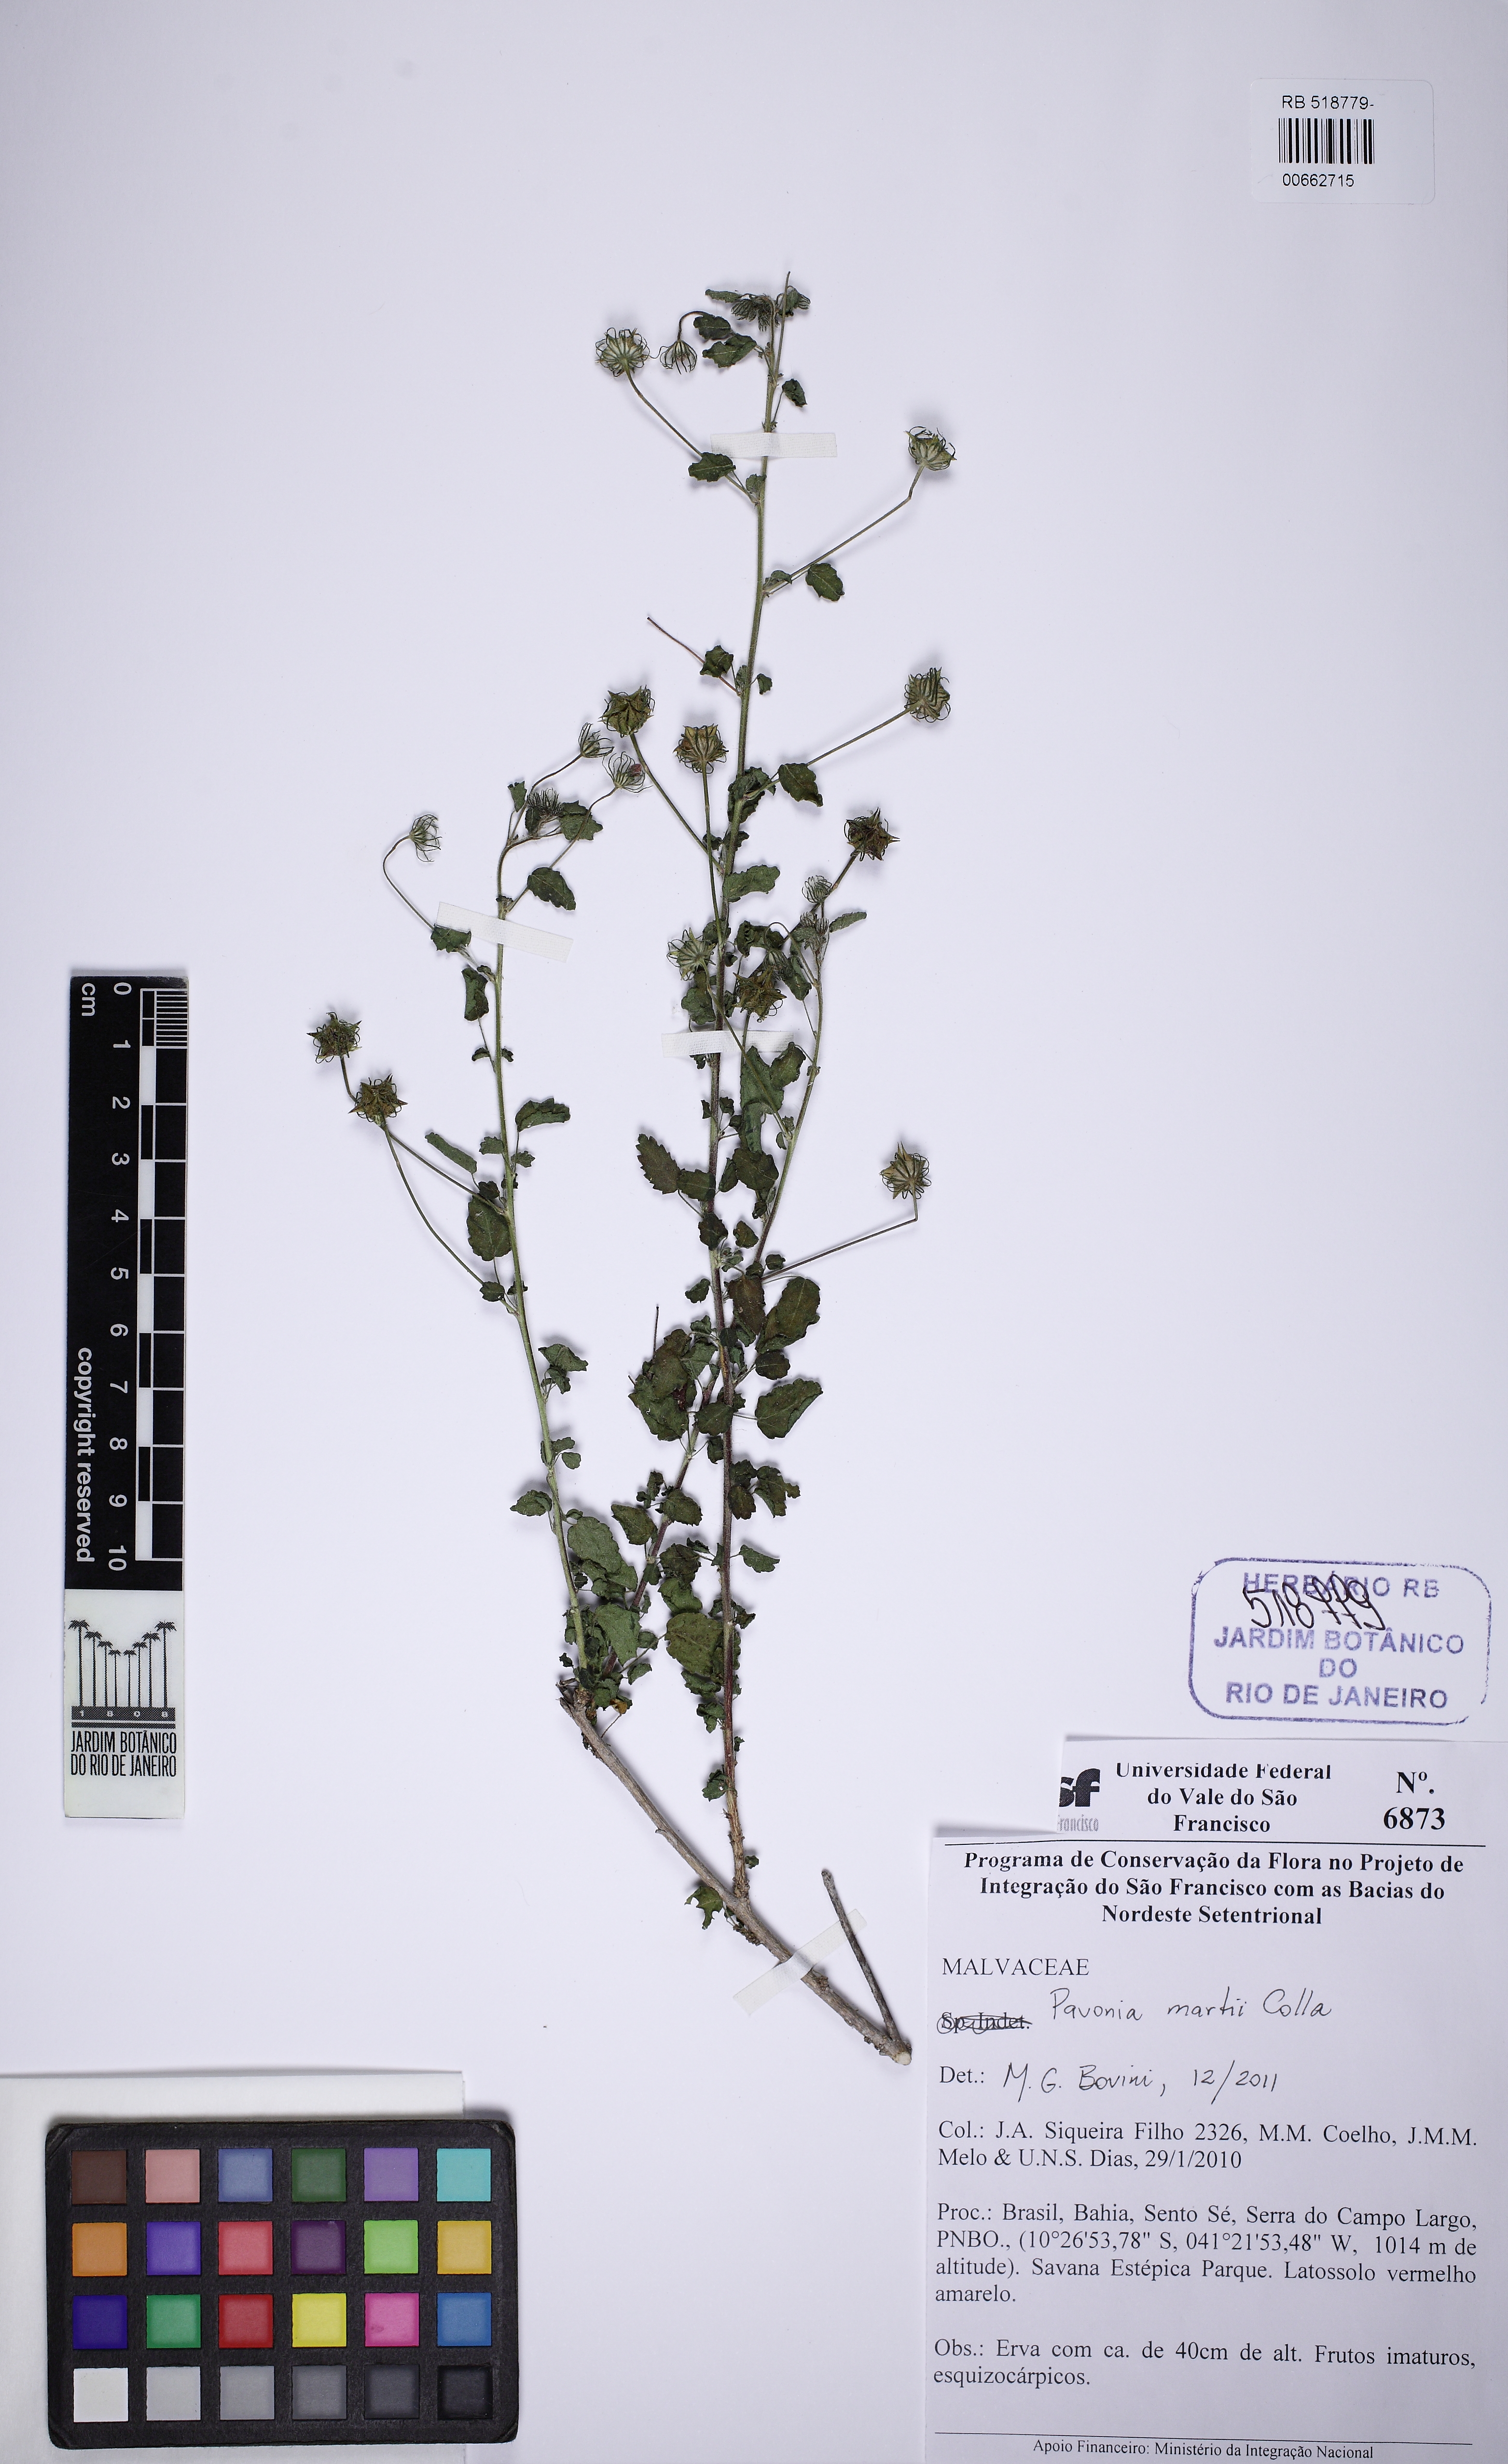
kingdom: Plantae
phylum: Tracheophyta
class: Magnoliopsida
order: Malvales
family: Malvaceae
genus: Pavonia
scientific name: Pavonia martii
